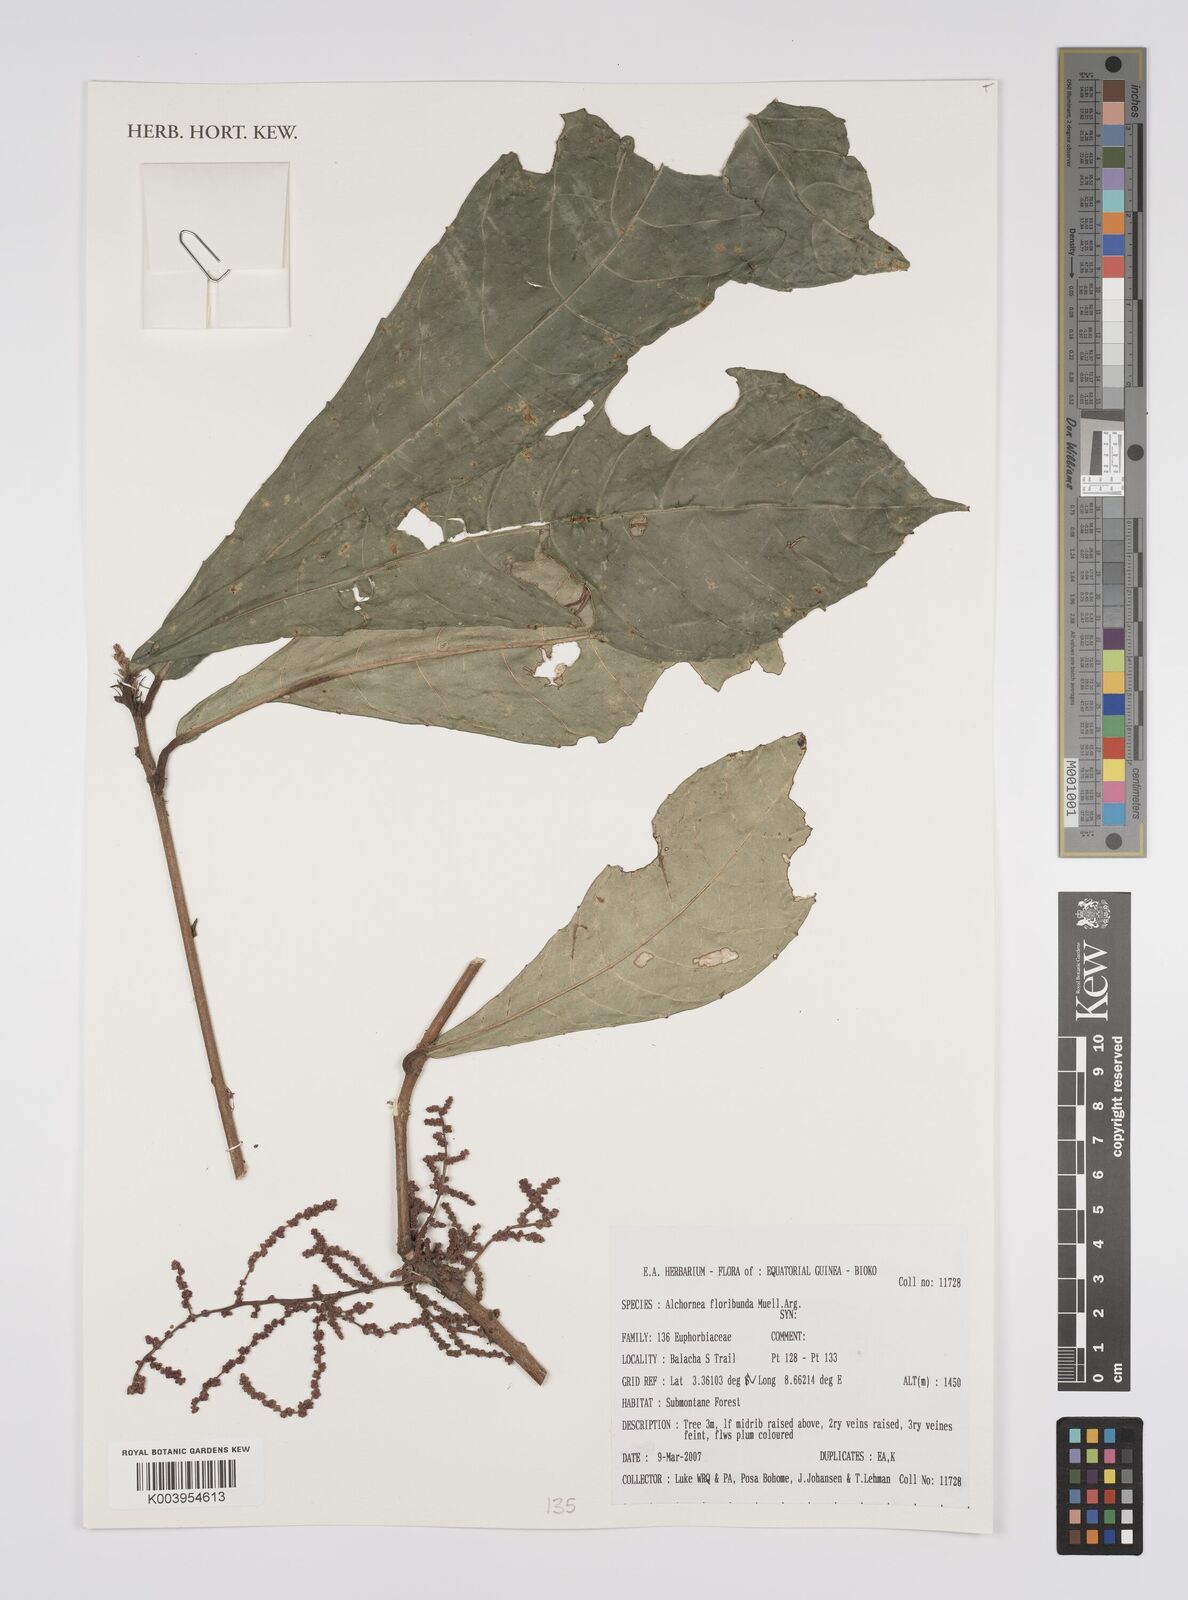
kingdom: Plantae
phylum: Tracheophyta
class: Magnoliopsida
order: Malpighiales
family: Euphorbiaceae
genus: Alchornea
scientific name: Alchornea floribunda
